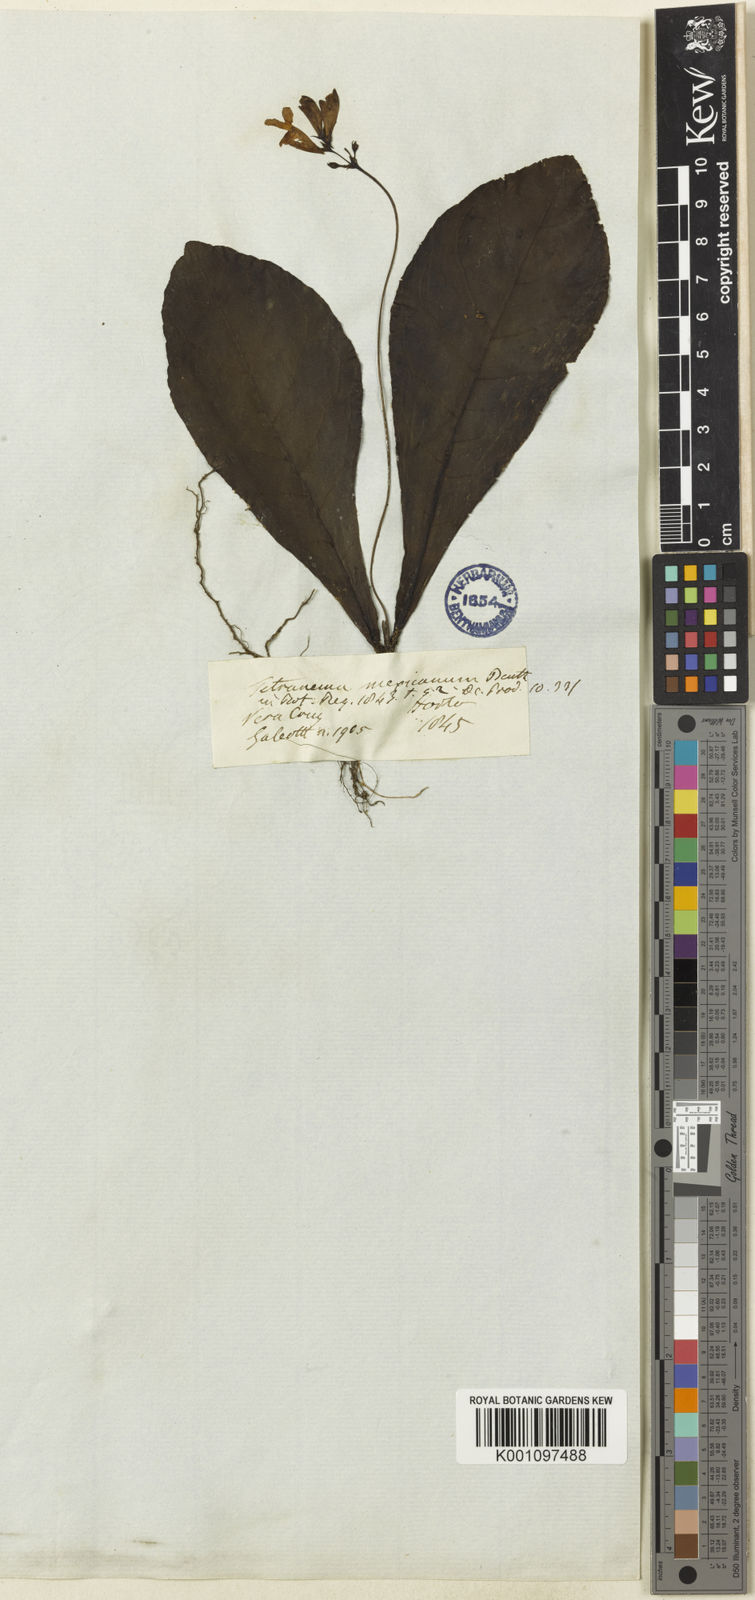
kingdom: Plantae
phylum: Tracheophyta
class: Magnoliopsida
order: Lamiales
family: Plantaginaceae
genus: Tetranema
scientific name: Tetranema roseum
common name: Mexican-violet
